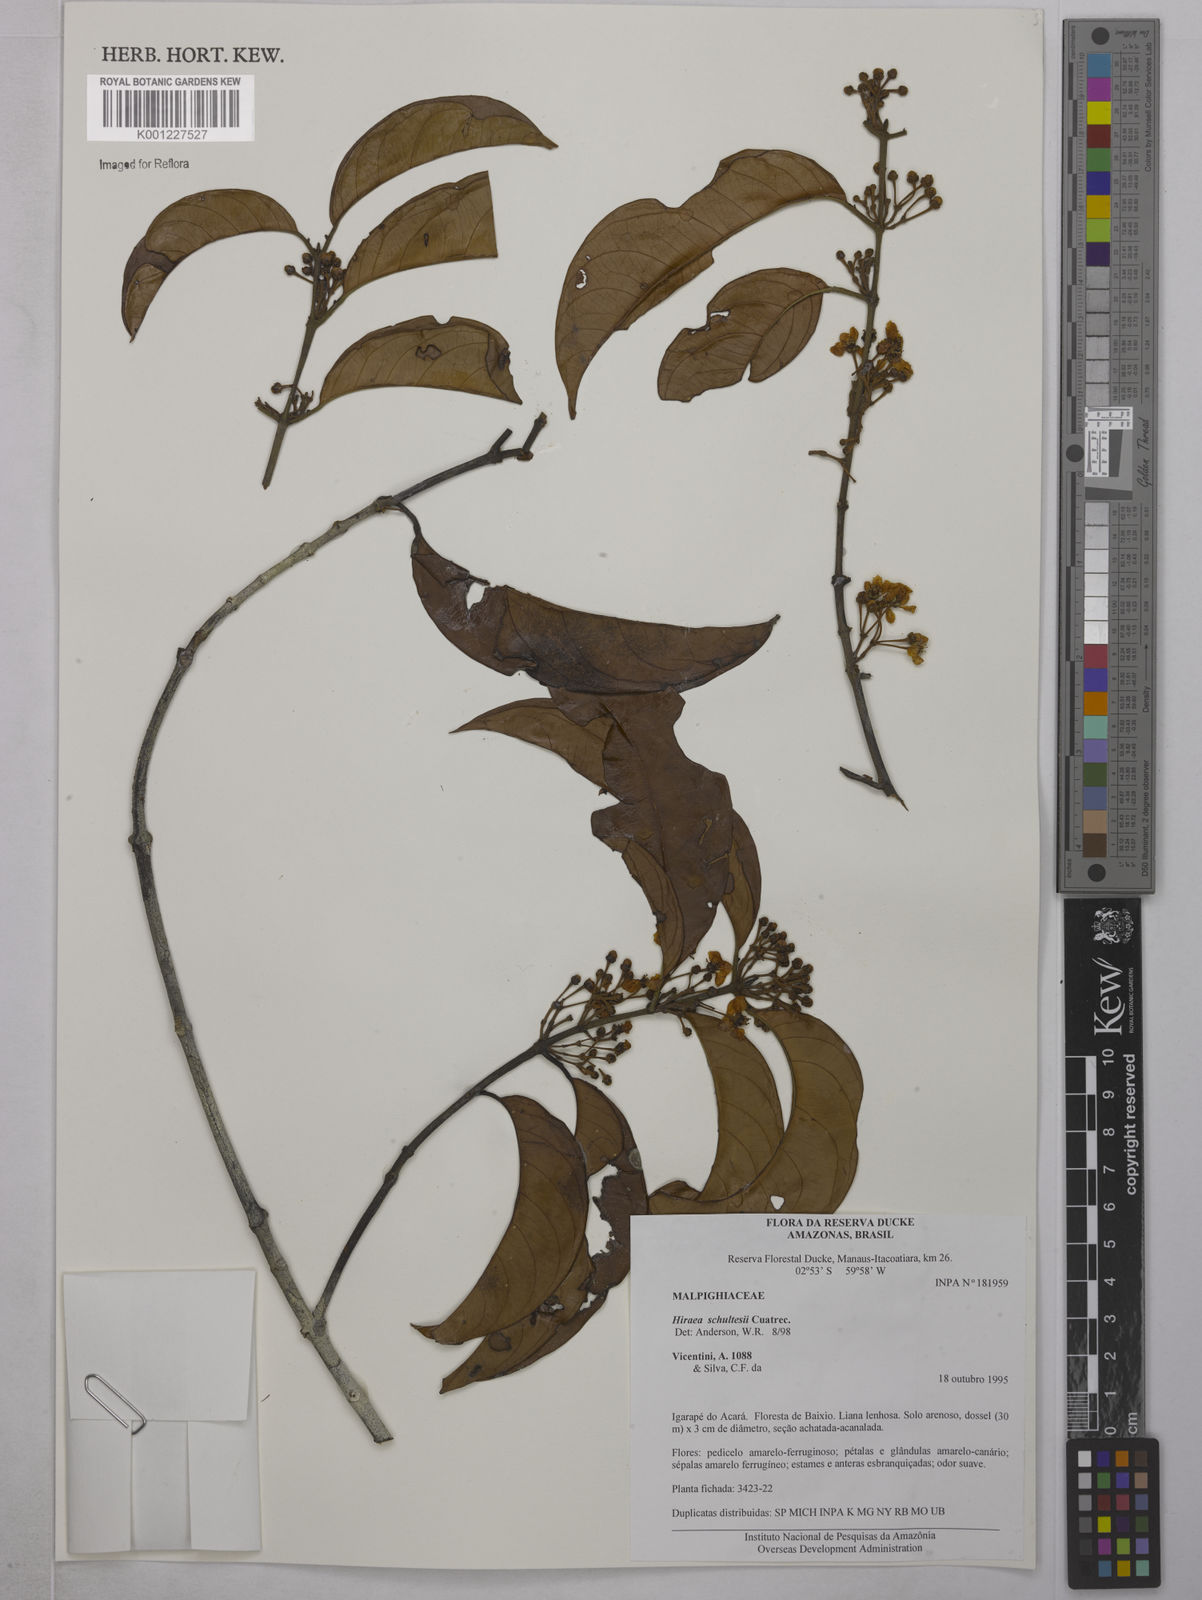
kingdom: Plantae
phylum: Tracheophyta
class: Magnoliopsida
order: Malpighiales
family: Malpighiaceae
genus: Hiraea
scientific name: Hiraea schultesii
